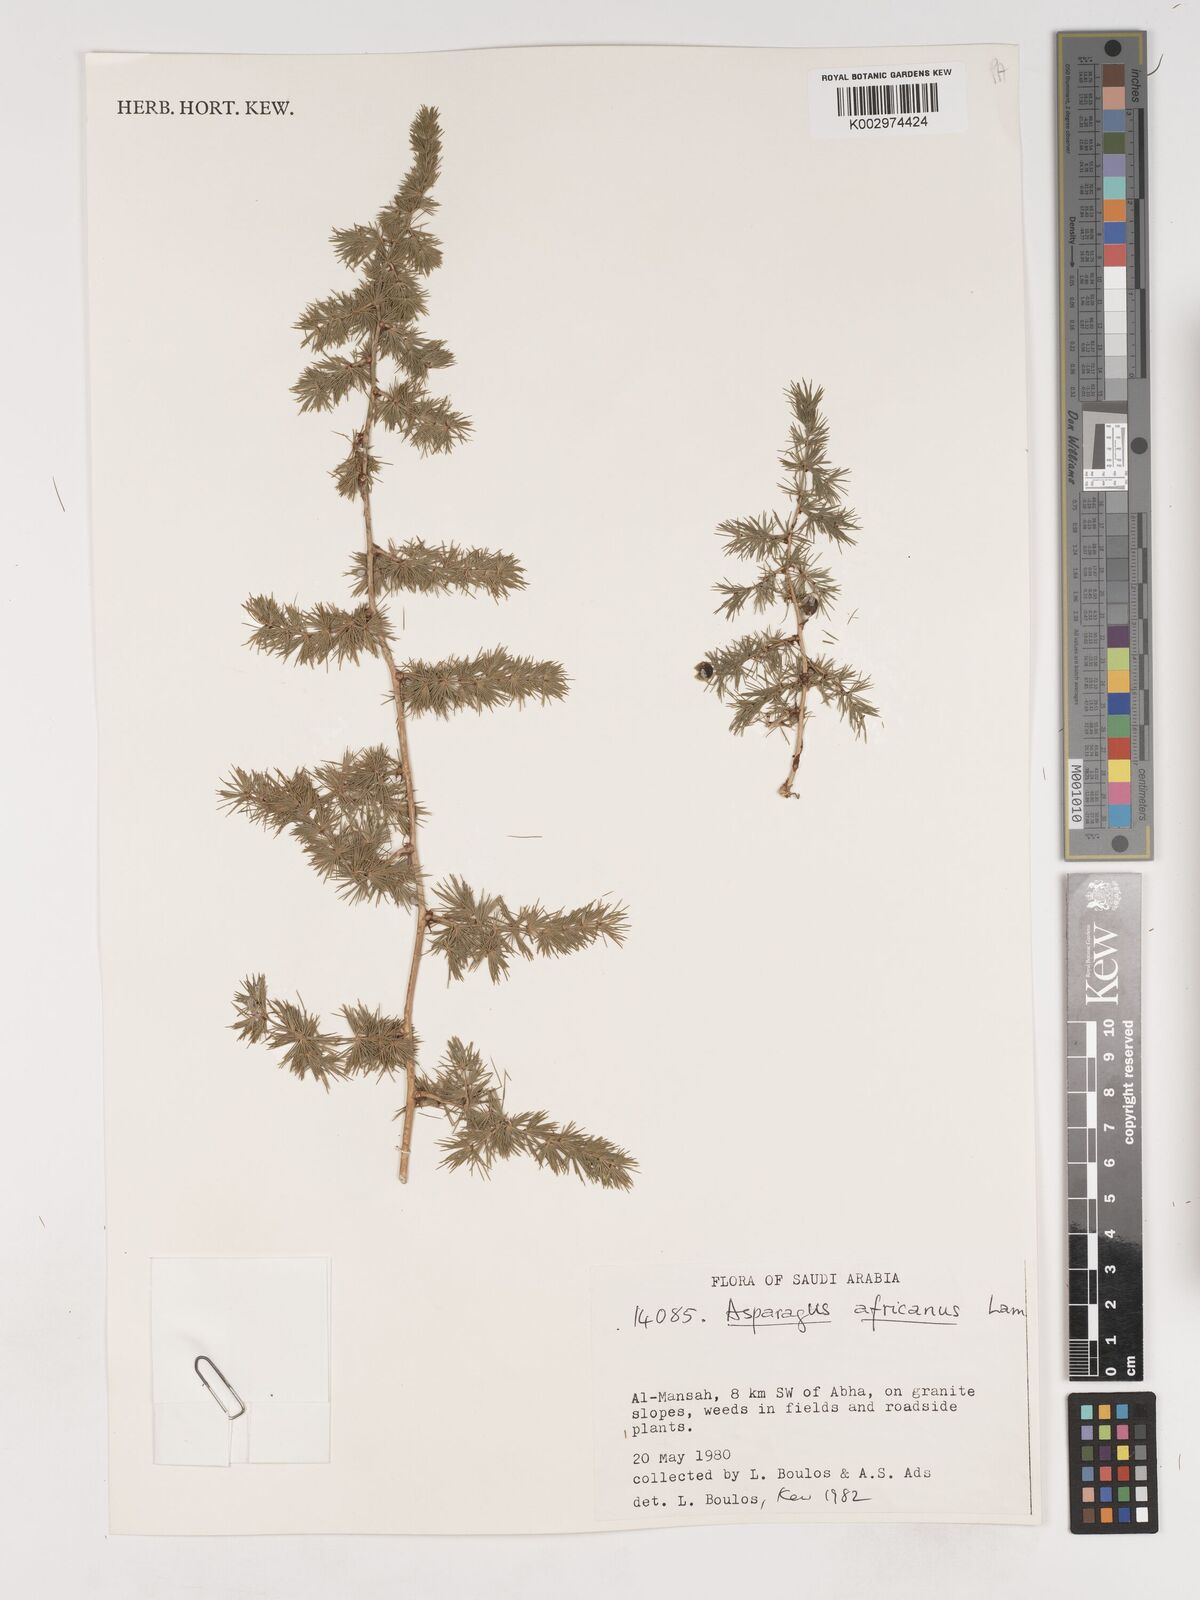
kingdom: Plantae
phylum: Tracheophyta
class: Liliopsida
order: Asparagales
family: Asparagaceae
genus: Asparagus
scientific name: Asparagus africanus
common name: Asparagus-fern
